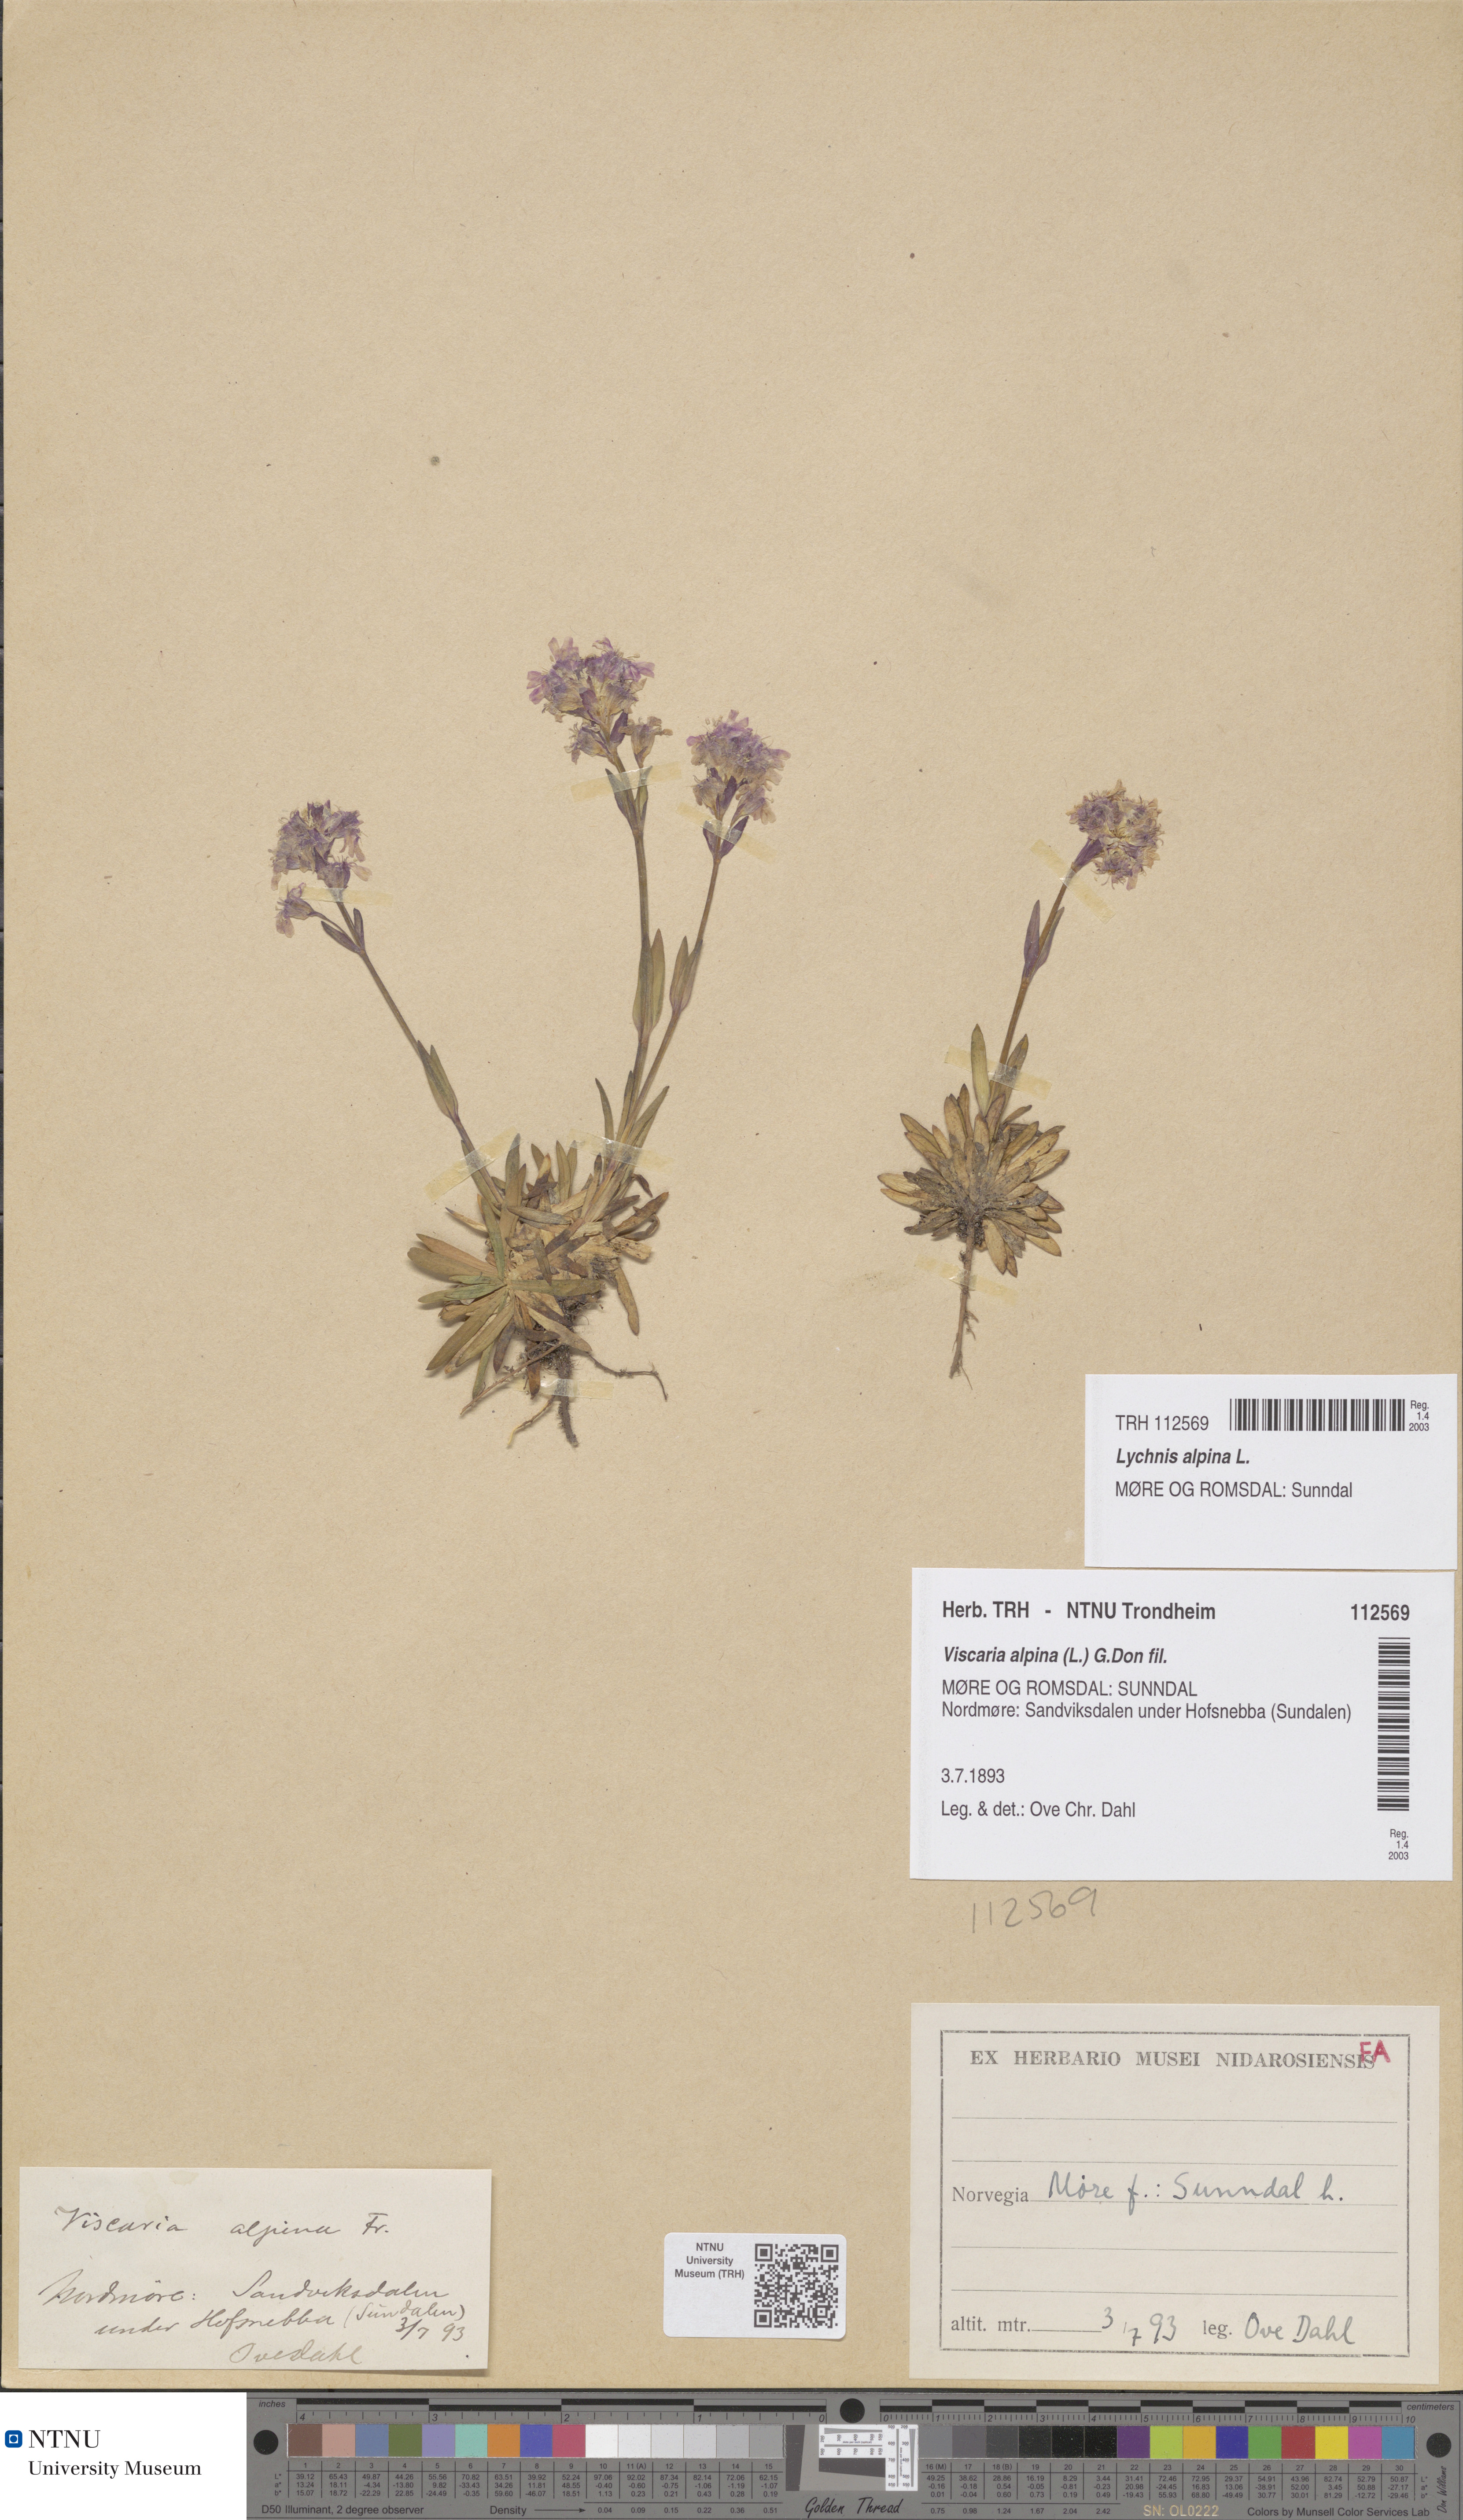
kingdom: Plantae
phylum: Tracheophyta
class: Magnoliopsida
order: Caryophyllales
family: Caryophyllaceae
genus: Viscaria
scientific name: Viscaria alpina
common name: Alpine campion
